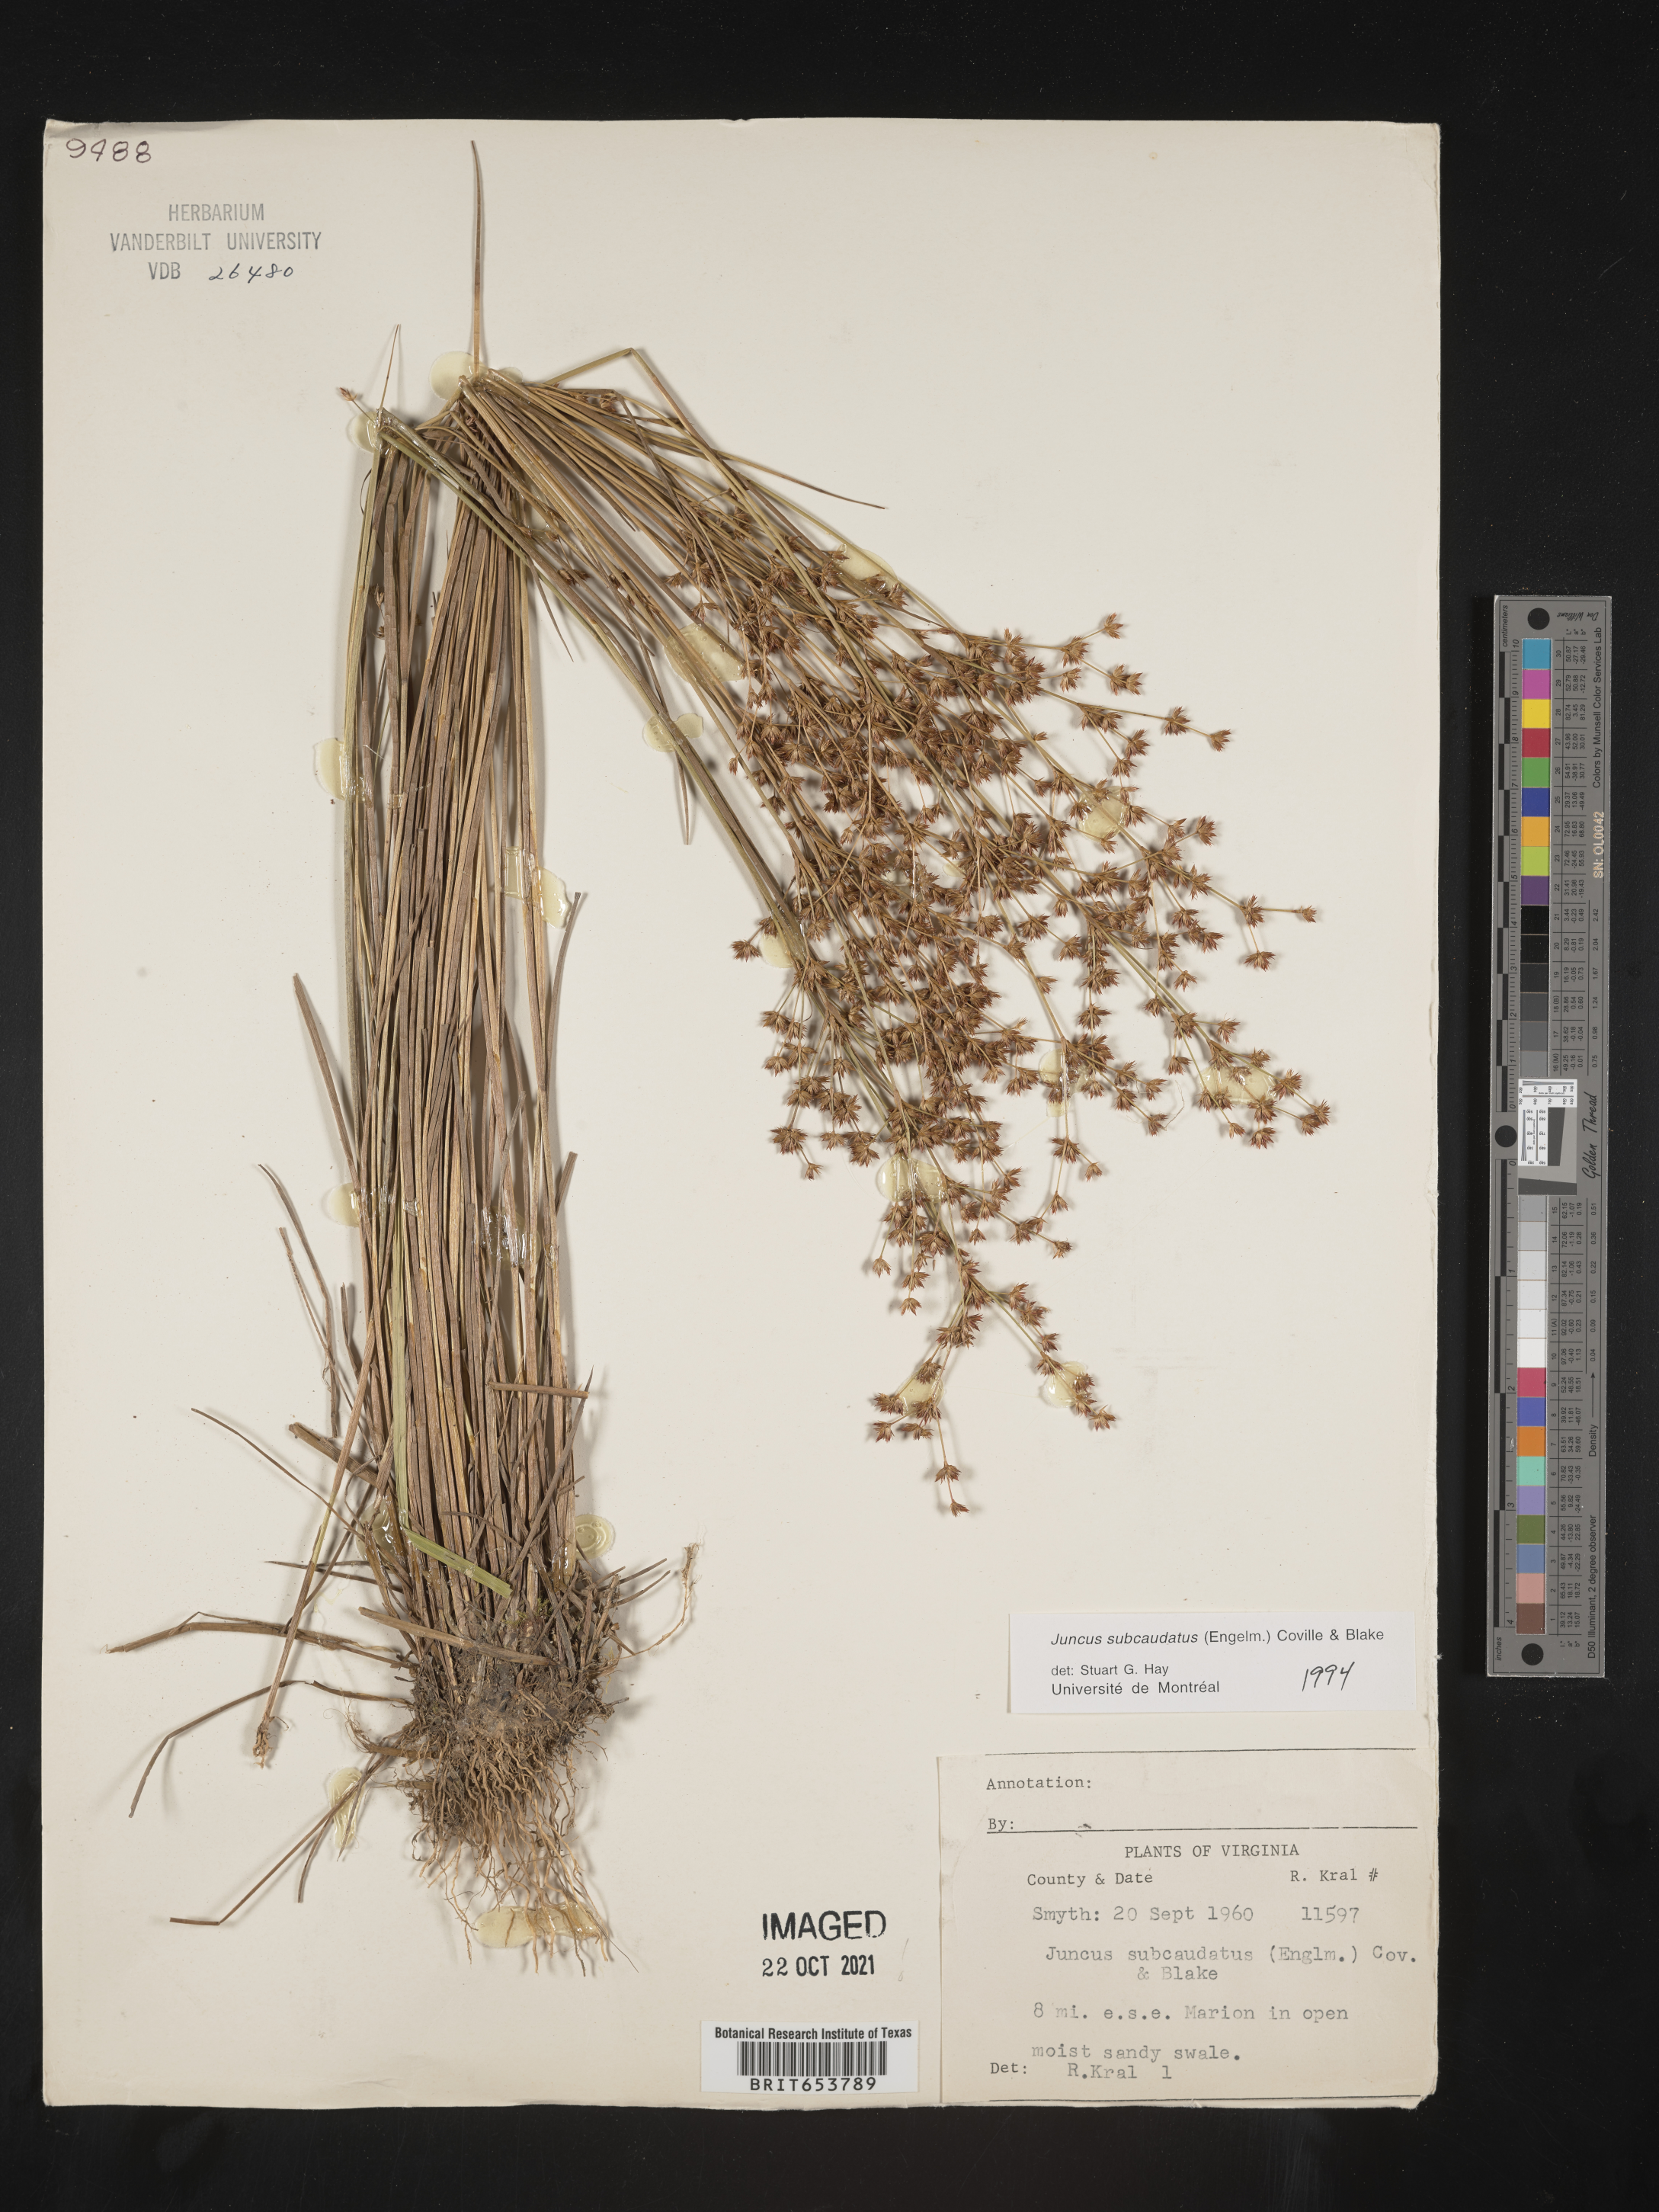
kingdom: Plantae
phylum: Tracheophyta
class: Liliopsida
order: Poales
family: Juncaceae
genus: Juncus
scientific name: Juncus subcaudatus
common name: Engelmann's rush
